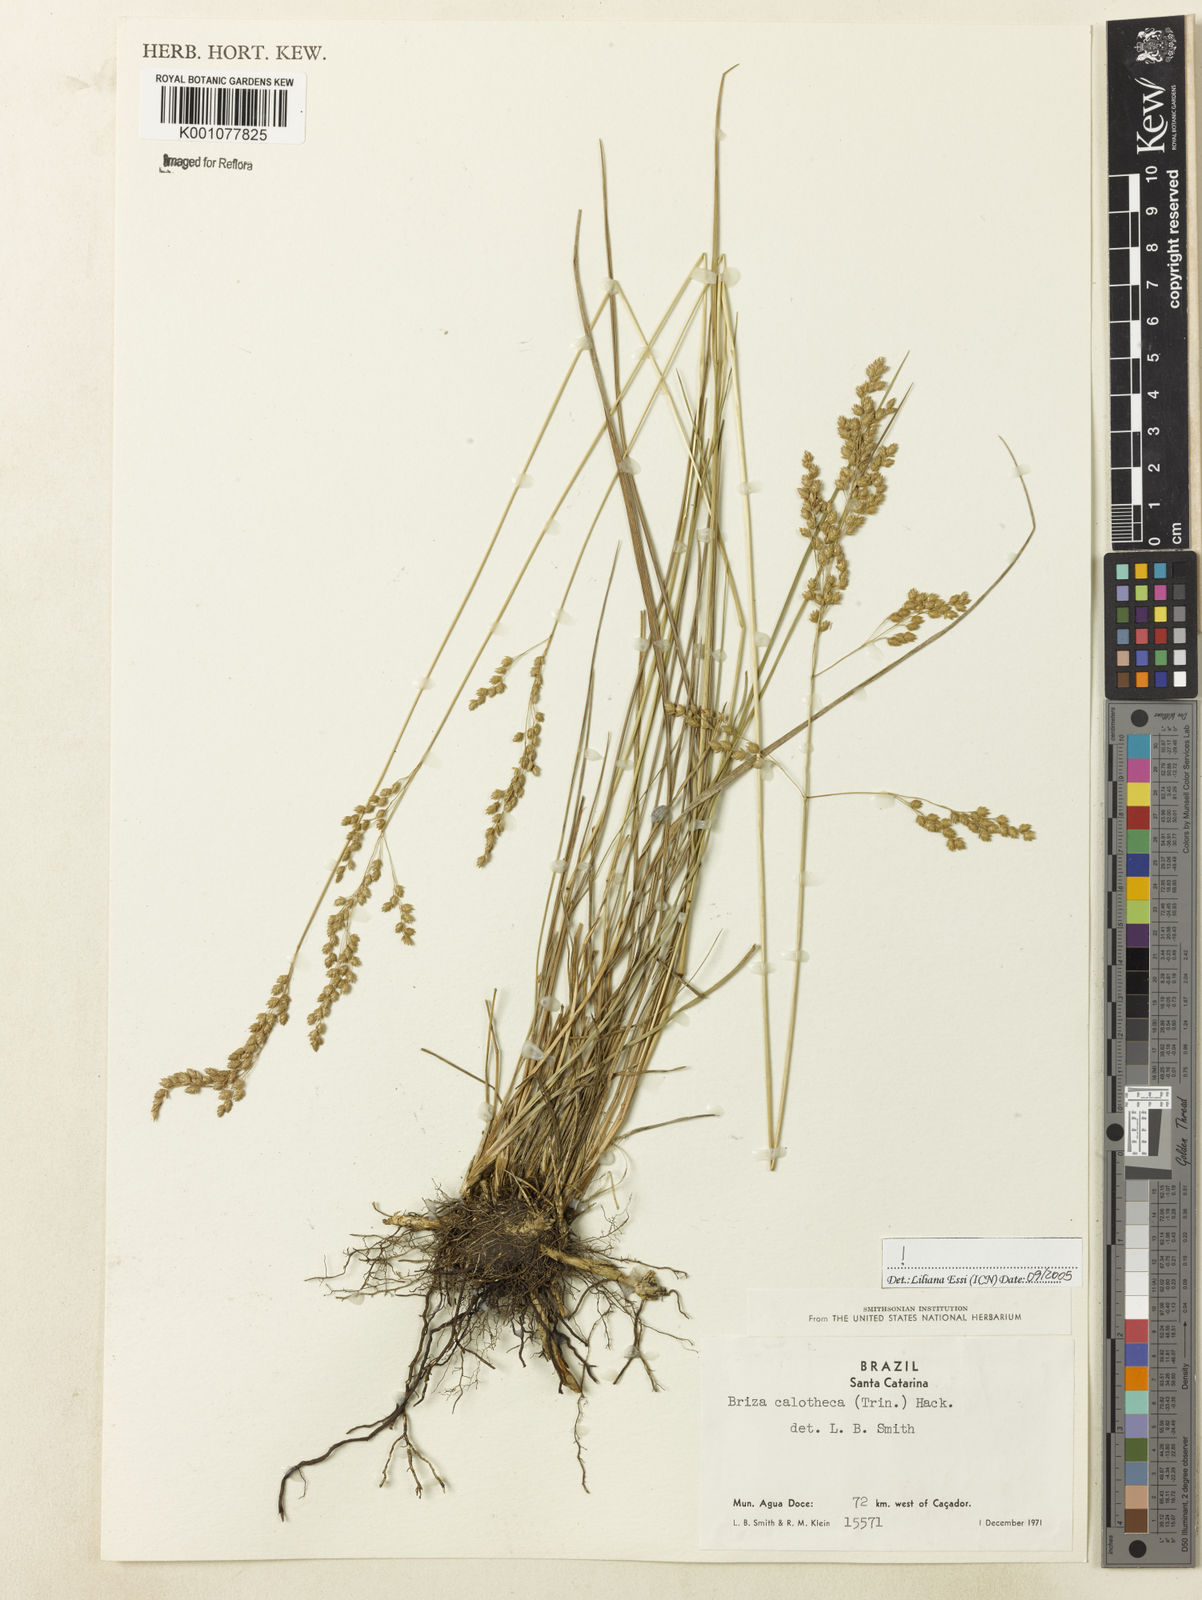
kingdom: Plantae
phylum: Tracheophyta
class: Liliopsida
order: Poales
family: Poaceae
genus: Poidium
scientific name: Poidium calotheca
